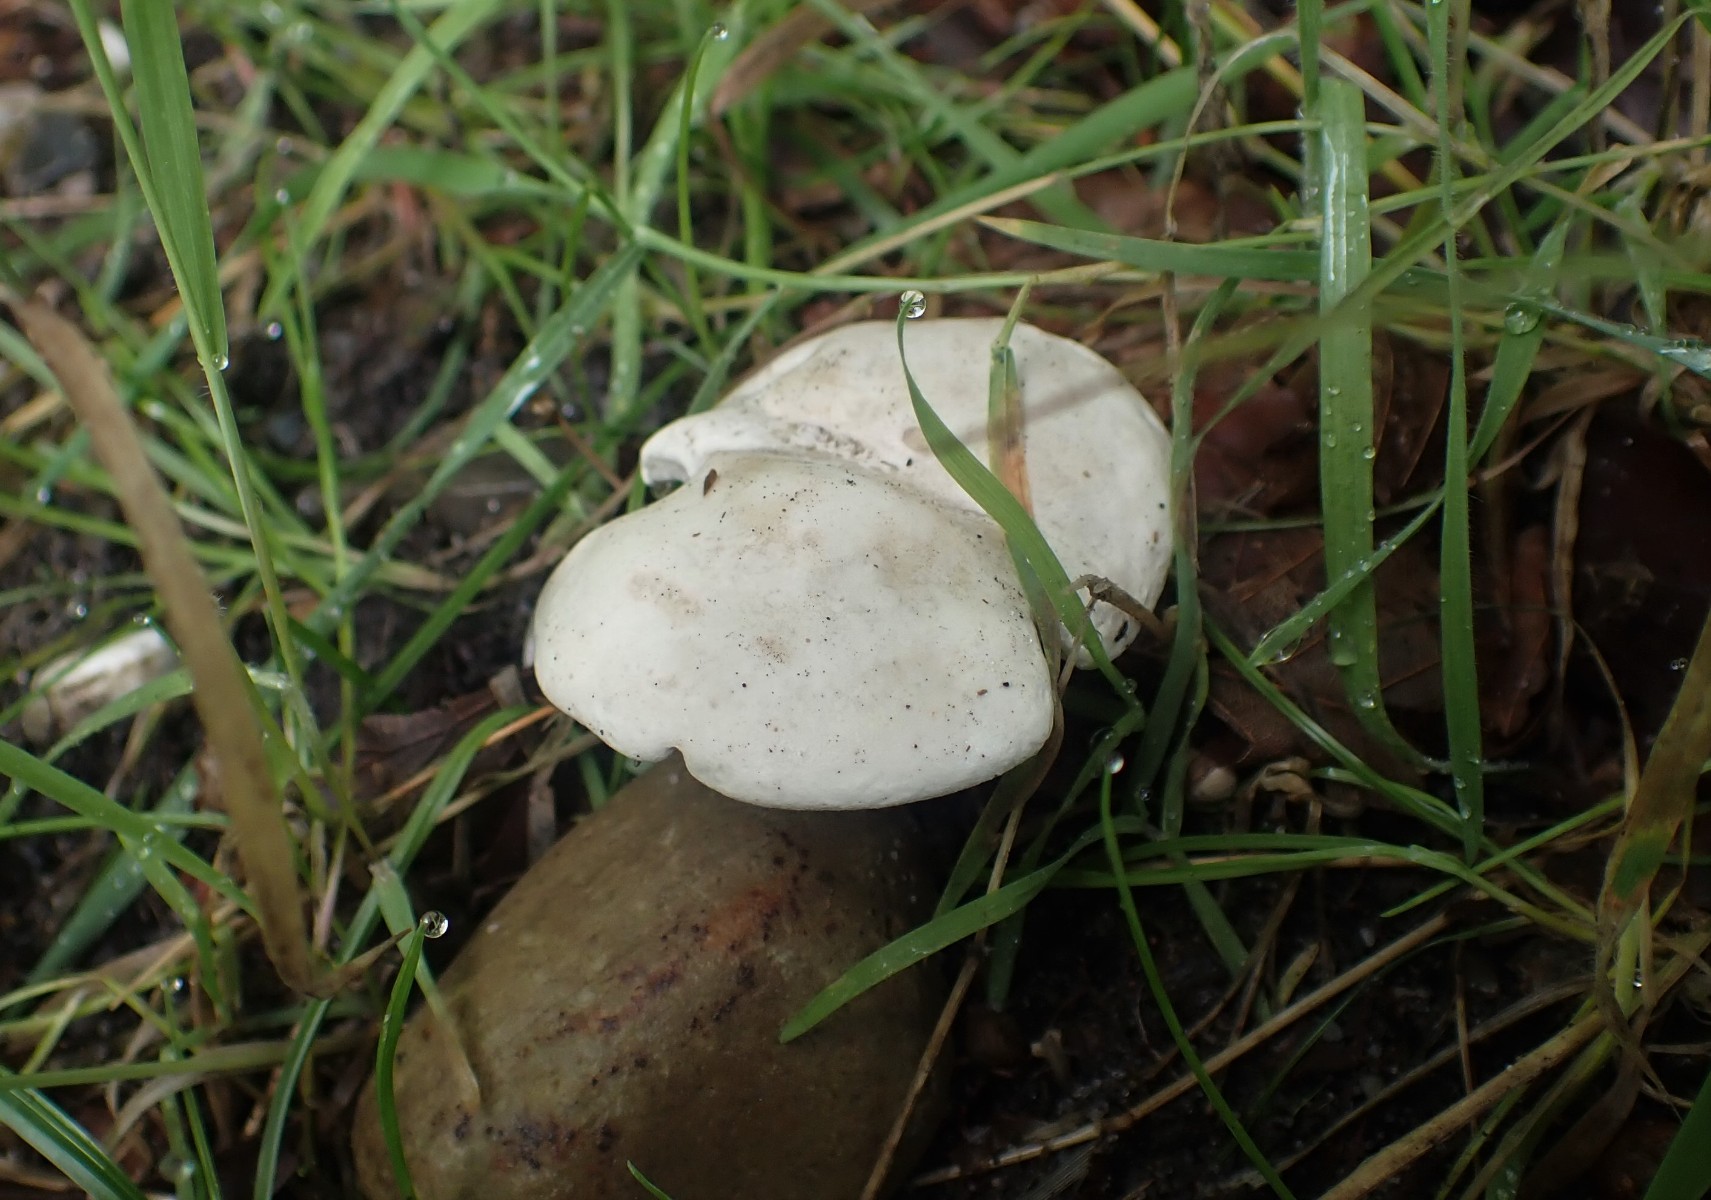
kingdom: Fungi
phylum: Basidiomycota
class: Agaricomycetes
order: Agaricales
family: Entolomataceae
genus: Clitopilus
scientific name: Clitopilus prunulus
